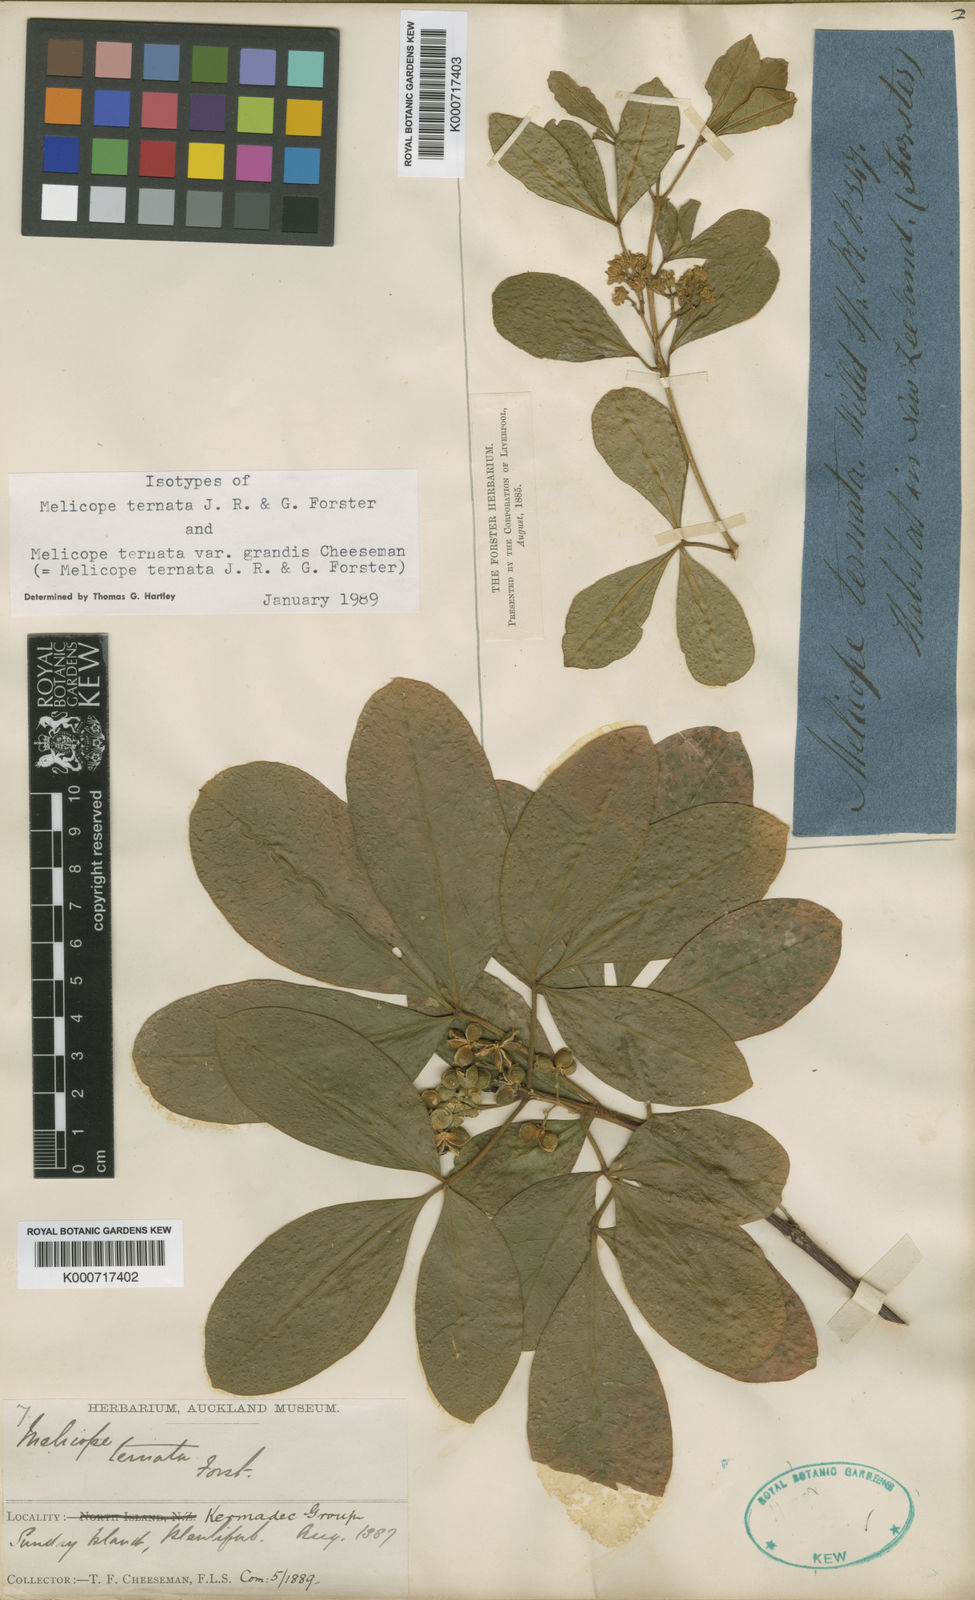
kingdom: Plantae
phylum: Tracheophyta
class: Magnoliopsida
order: Sapindales
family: Rutaceae
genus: Melicope
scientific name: Melicope ternata
